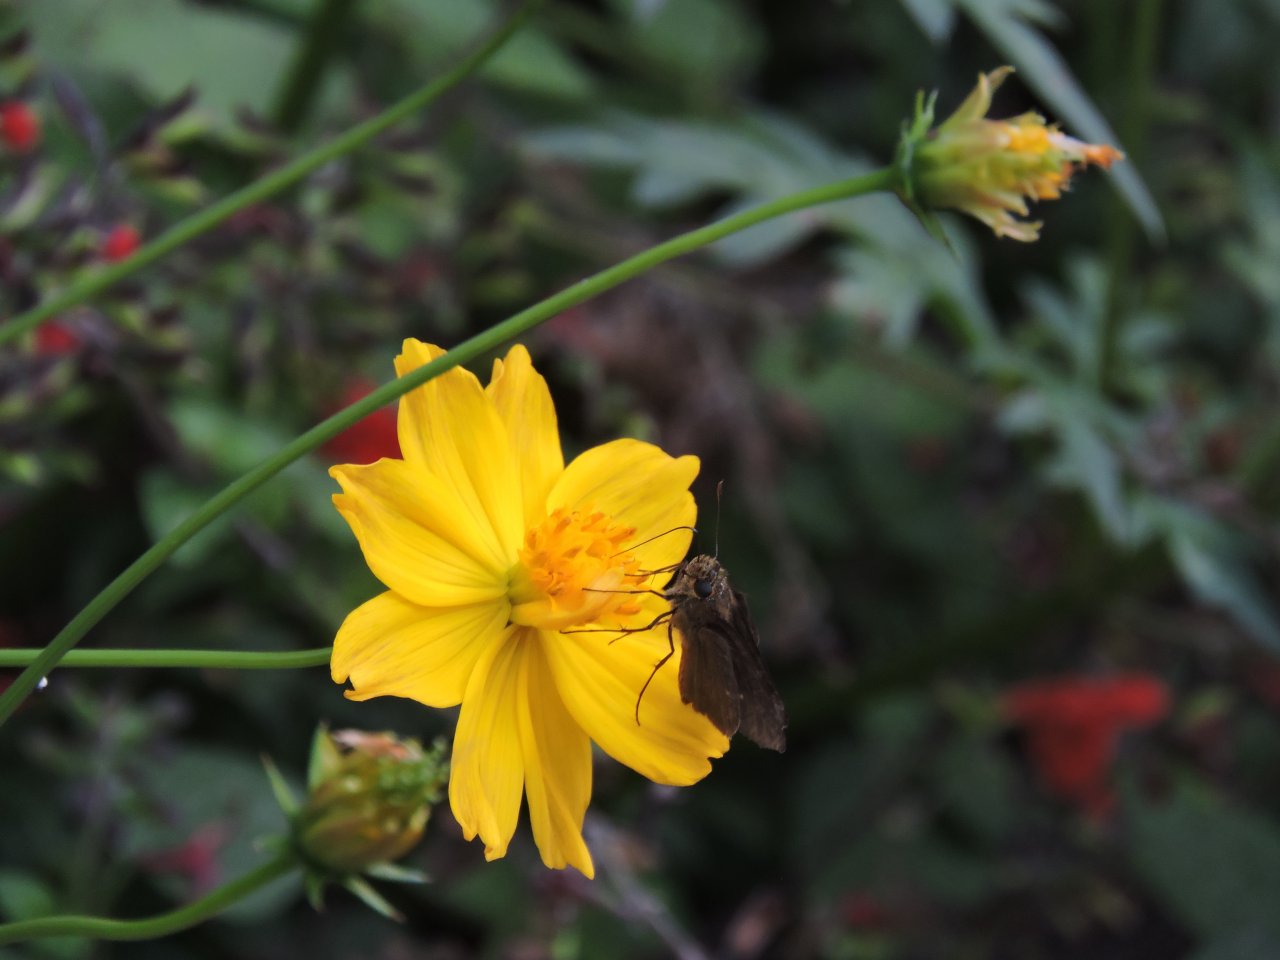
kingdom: Animalia
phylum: Arthropoda
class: Insecta
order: Lepidoptera
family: Hesperiidae
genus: Panoquina
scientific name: Panoquina ocola
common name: Ocola Skipper
